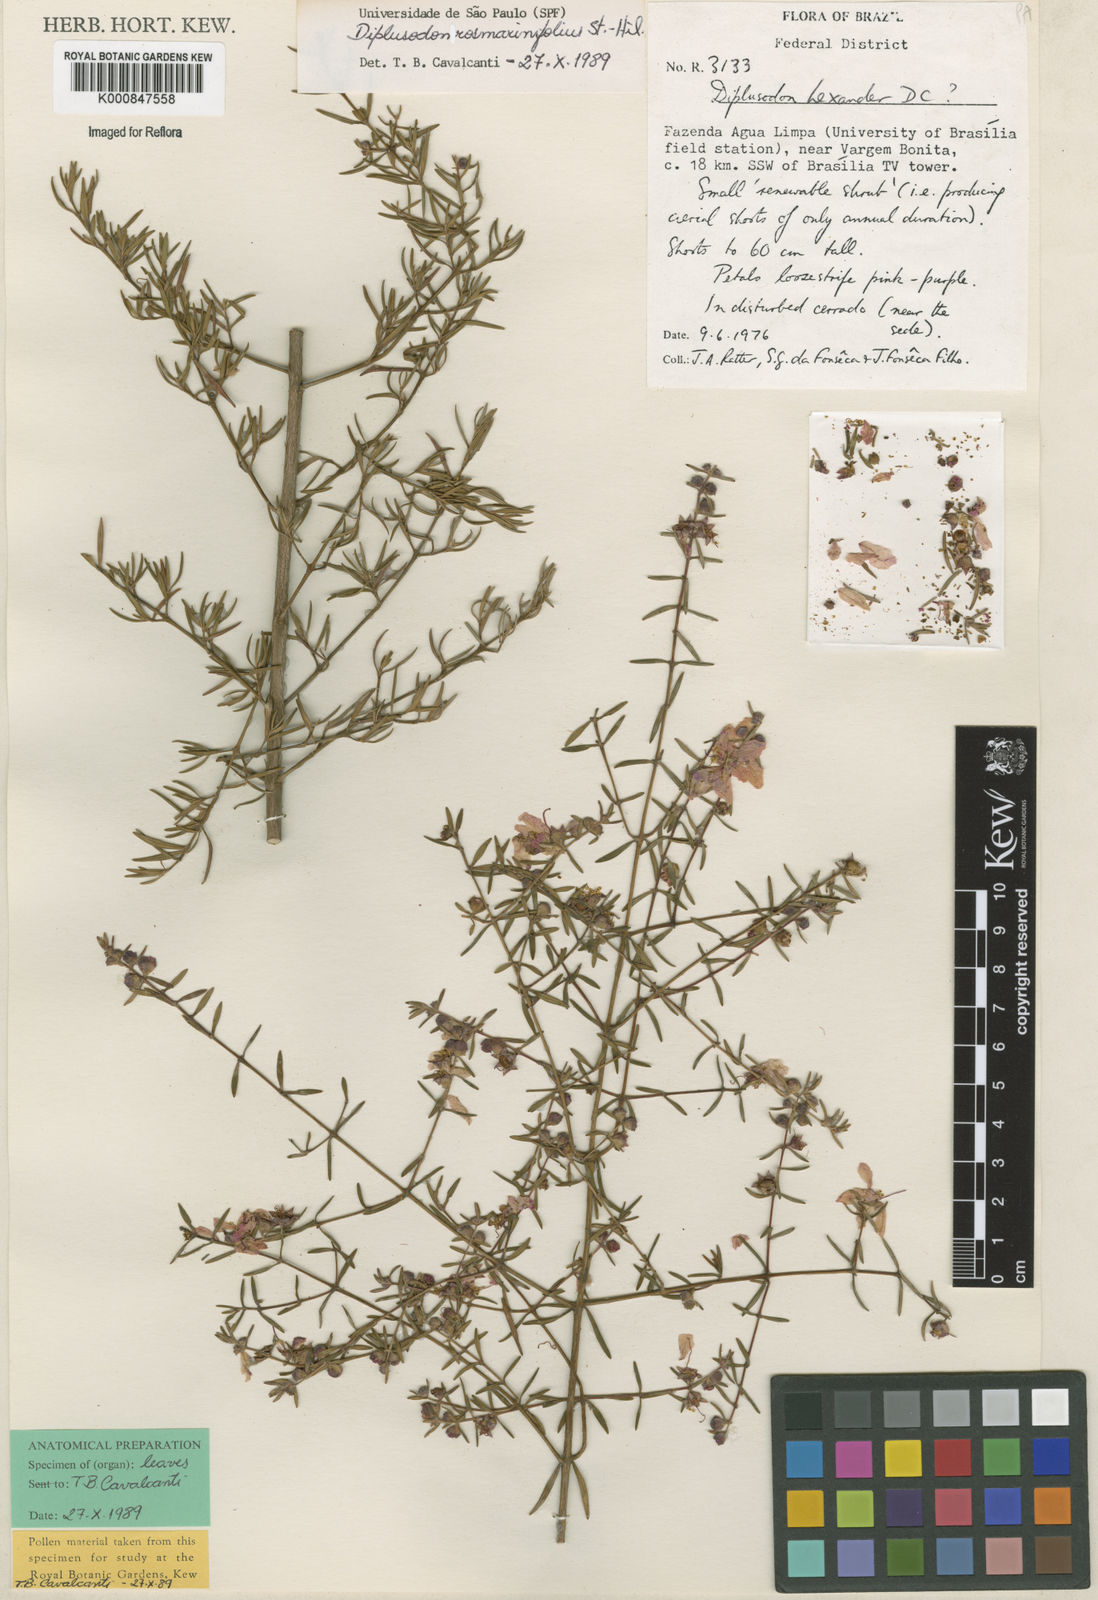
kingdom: Plantae
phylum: Tracheophyta
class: Magnoliopsida
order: Myrtales
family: Lythraceae
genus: Diplusodon
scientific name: Diplusodon rosmarinifolius
